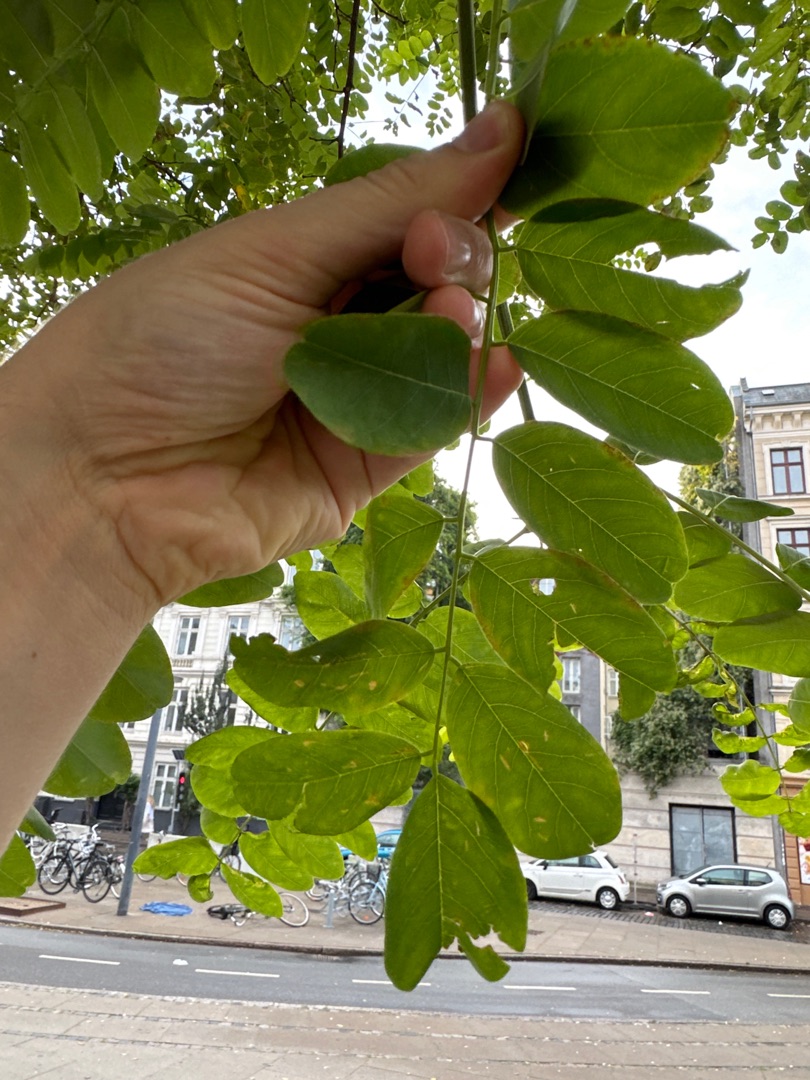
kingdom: Plantae
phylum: Tracheophyta
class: Magnoliopsida
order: Fabales
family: Fabaceae
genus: Robinia
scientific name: Robinia pseudoacacia
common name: Robinie
